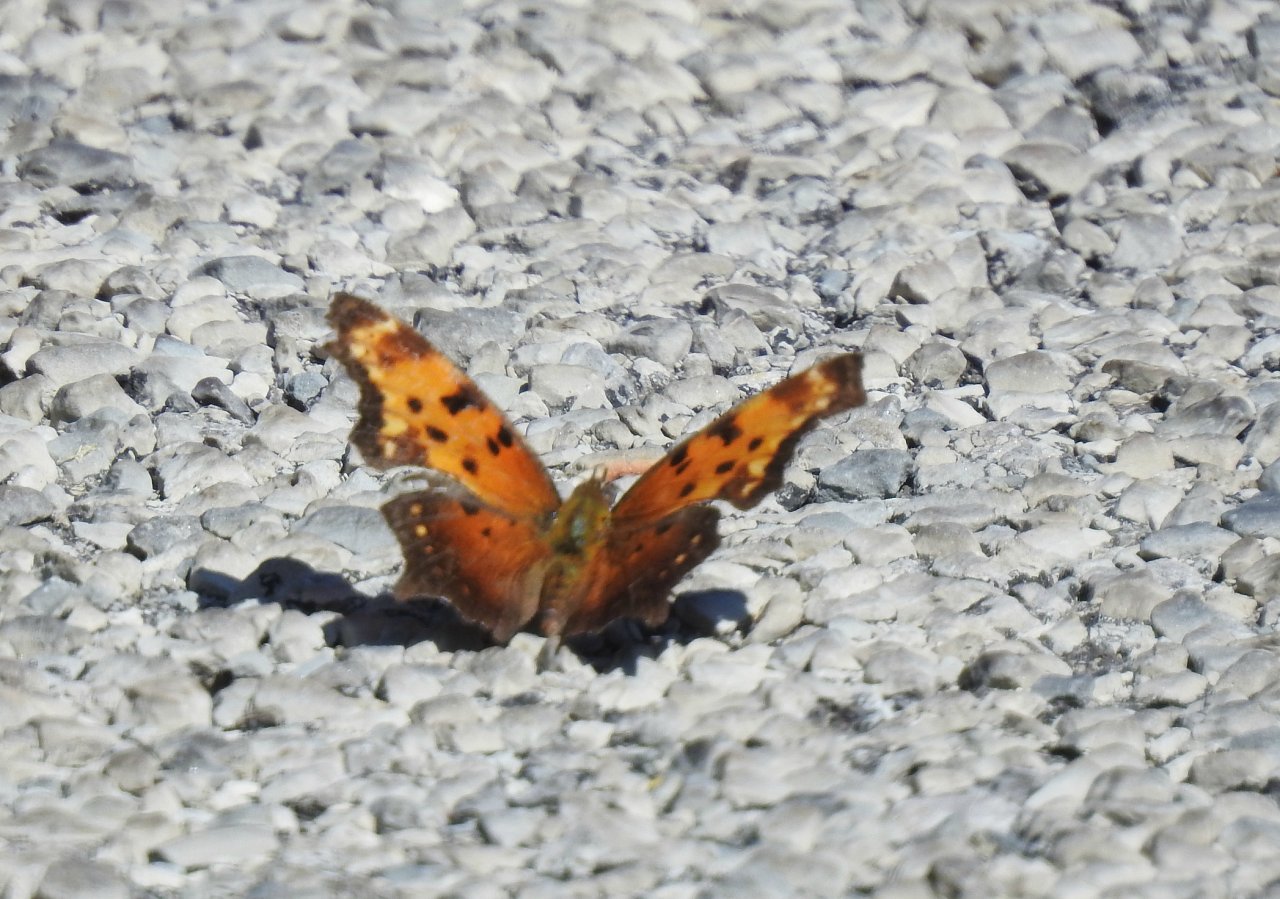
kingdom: Animalia
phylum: Arthropoda
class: Insecta
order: Lepidoptera
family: Nymphalidae
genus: Polygonia
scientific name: Polygonia progne
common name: Gray Comma
